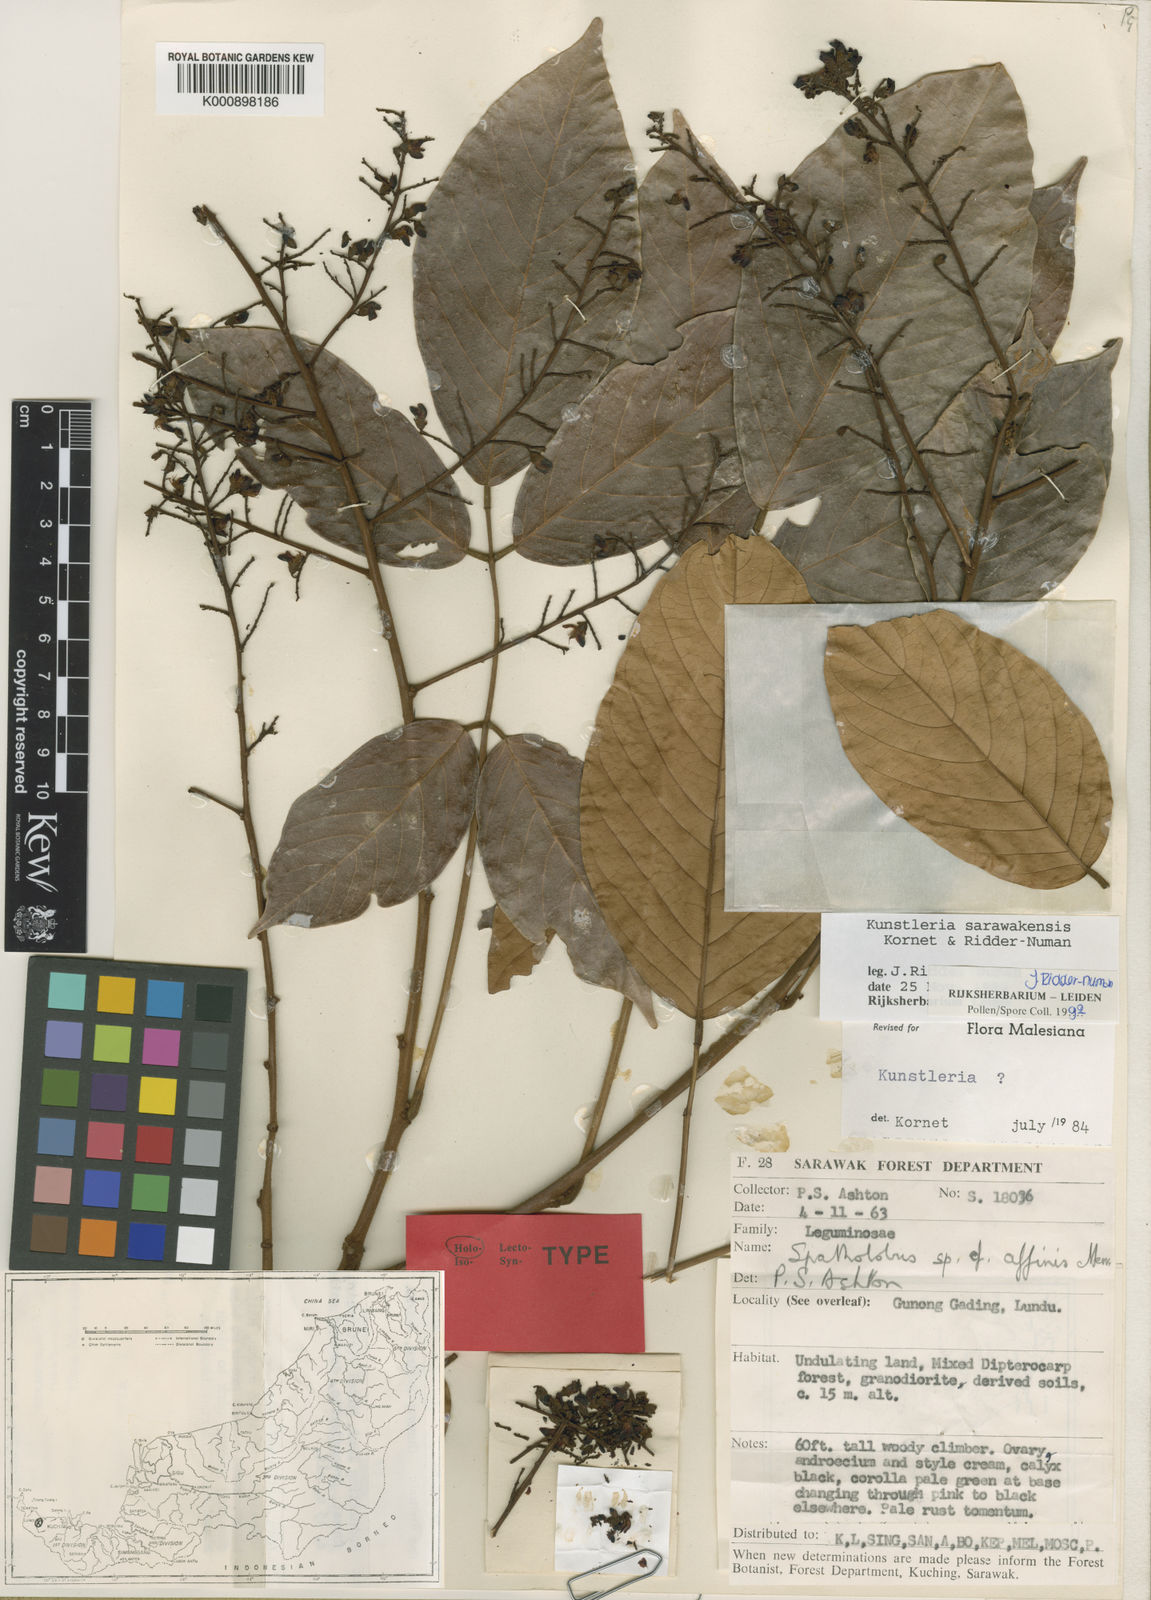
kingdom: Plantae
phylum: Tracheophyta
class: Magnoliopsida
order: Fabales
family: Fabaceae
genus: Kunstleria
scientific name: Kunstleria sarawakensis
